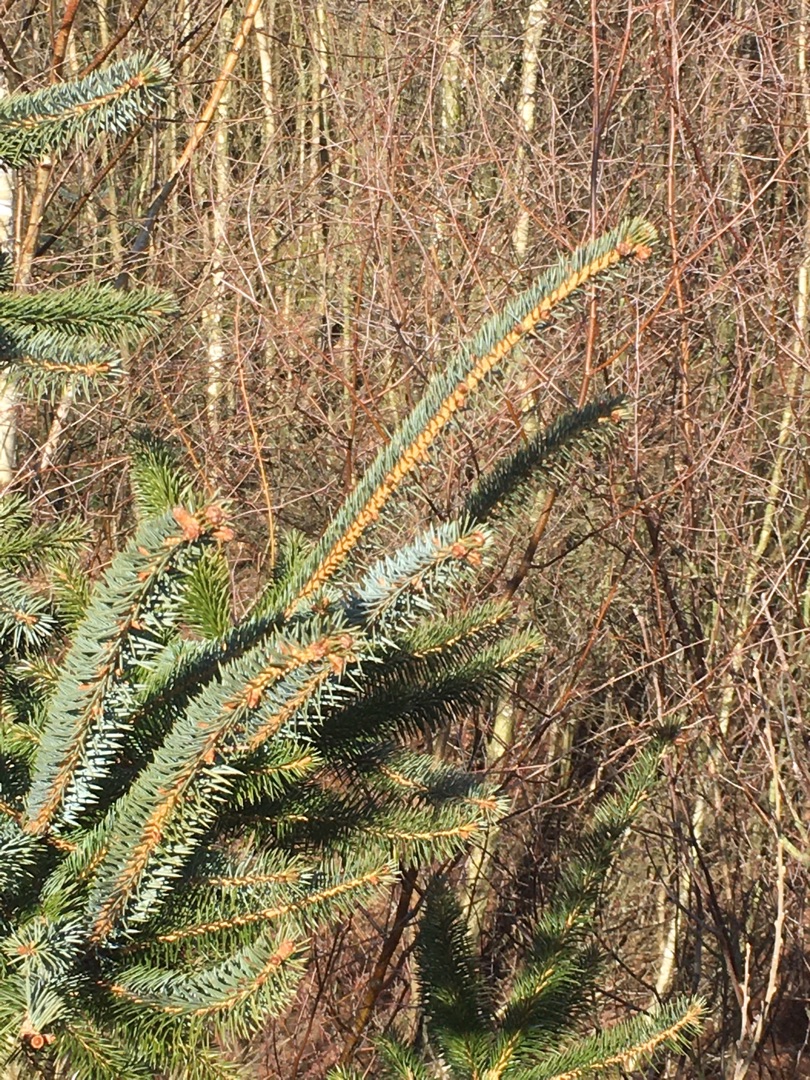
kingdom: Plantae
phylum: Tracheophyta
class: Pinopsida
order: Pinales
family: Pinaceae
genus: Picea
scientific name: Picea sitchensis
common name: Sitka-gran
